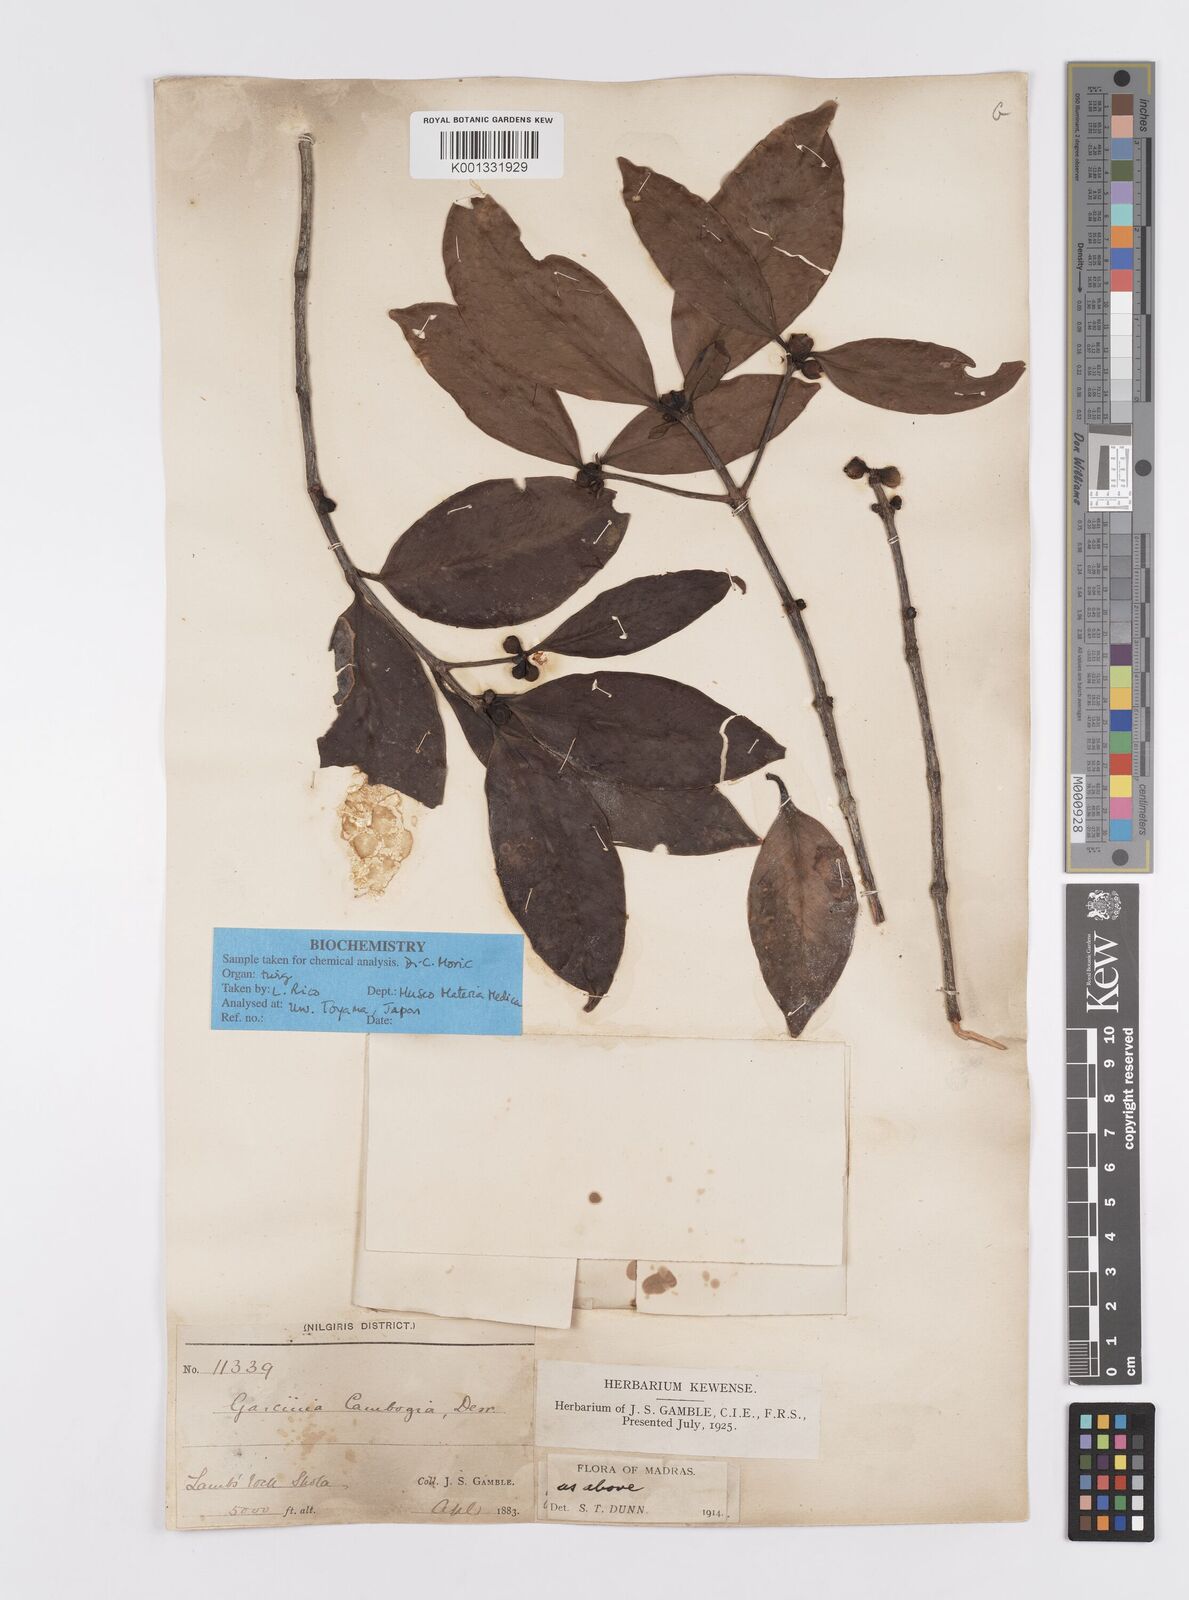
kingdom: Plantae
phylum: Tracheophyta
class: Magnoliopsida
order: Malpighiales
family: Clusiaceae
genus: Garcinia
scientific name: Garcinia gummi-gutta
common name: Malabar tamarind
